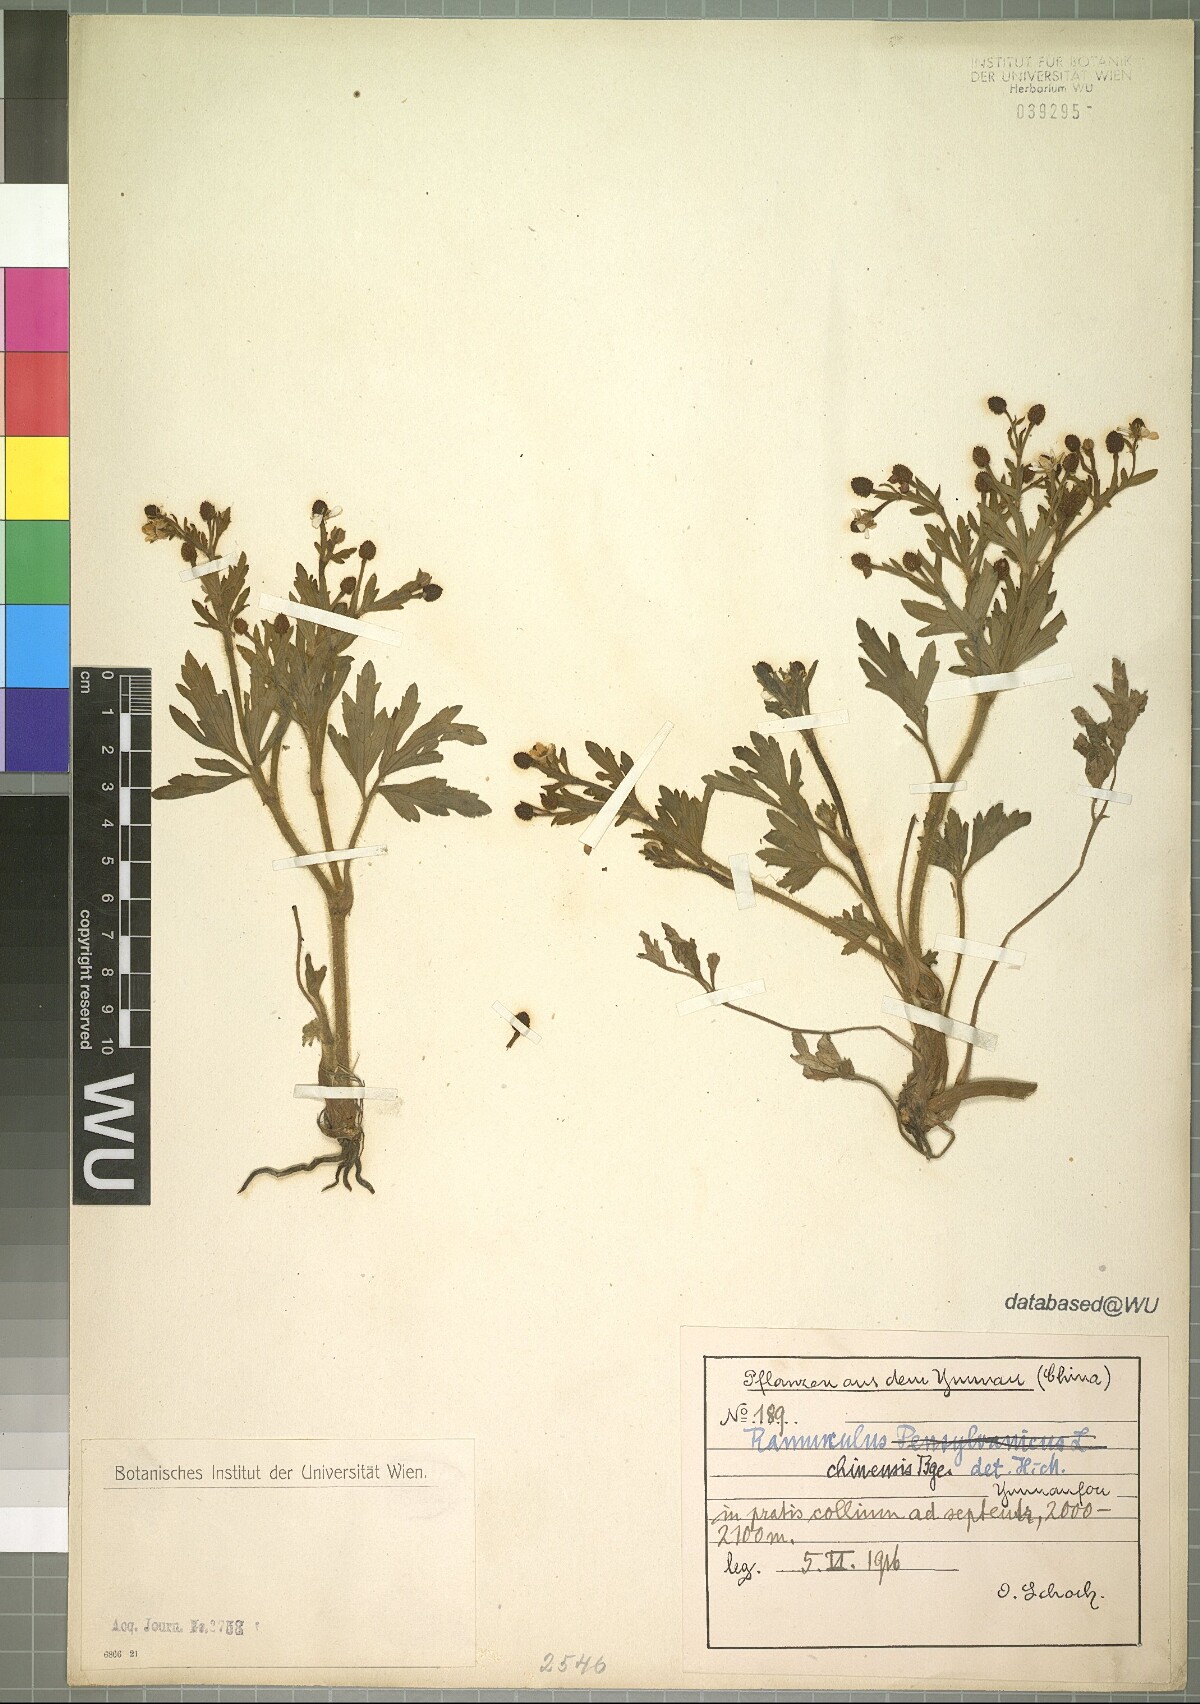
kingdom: Plantae
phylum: Tracheophyta
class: Magnoliopsida
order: Ranunculales
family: Ranunculaceae
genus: Ranunculus
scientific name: Ranunculus chinensis
